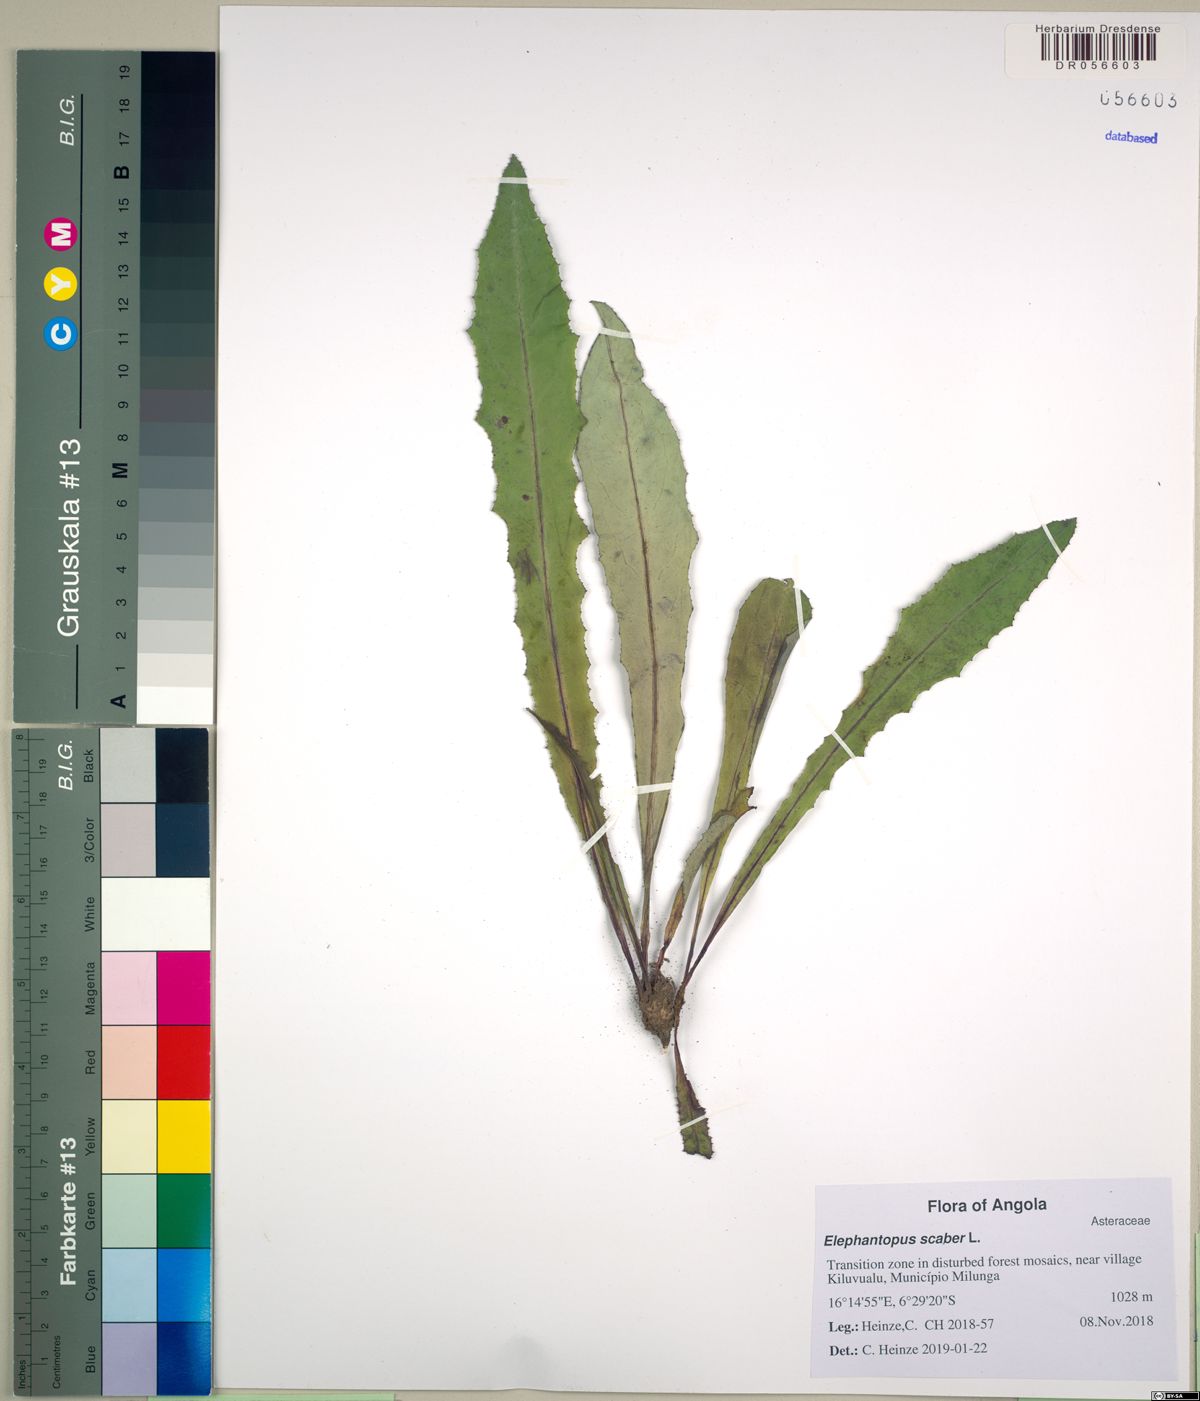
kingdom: Plantae
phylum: Tracheophyta
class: Magnoliopsida
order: Asterales
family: Asteraceae
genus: Elephantopus
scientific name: Elephantopus scaber
